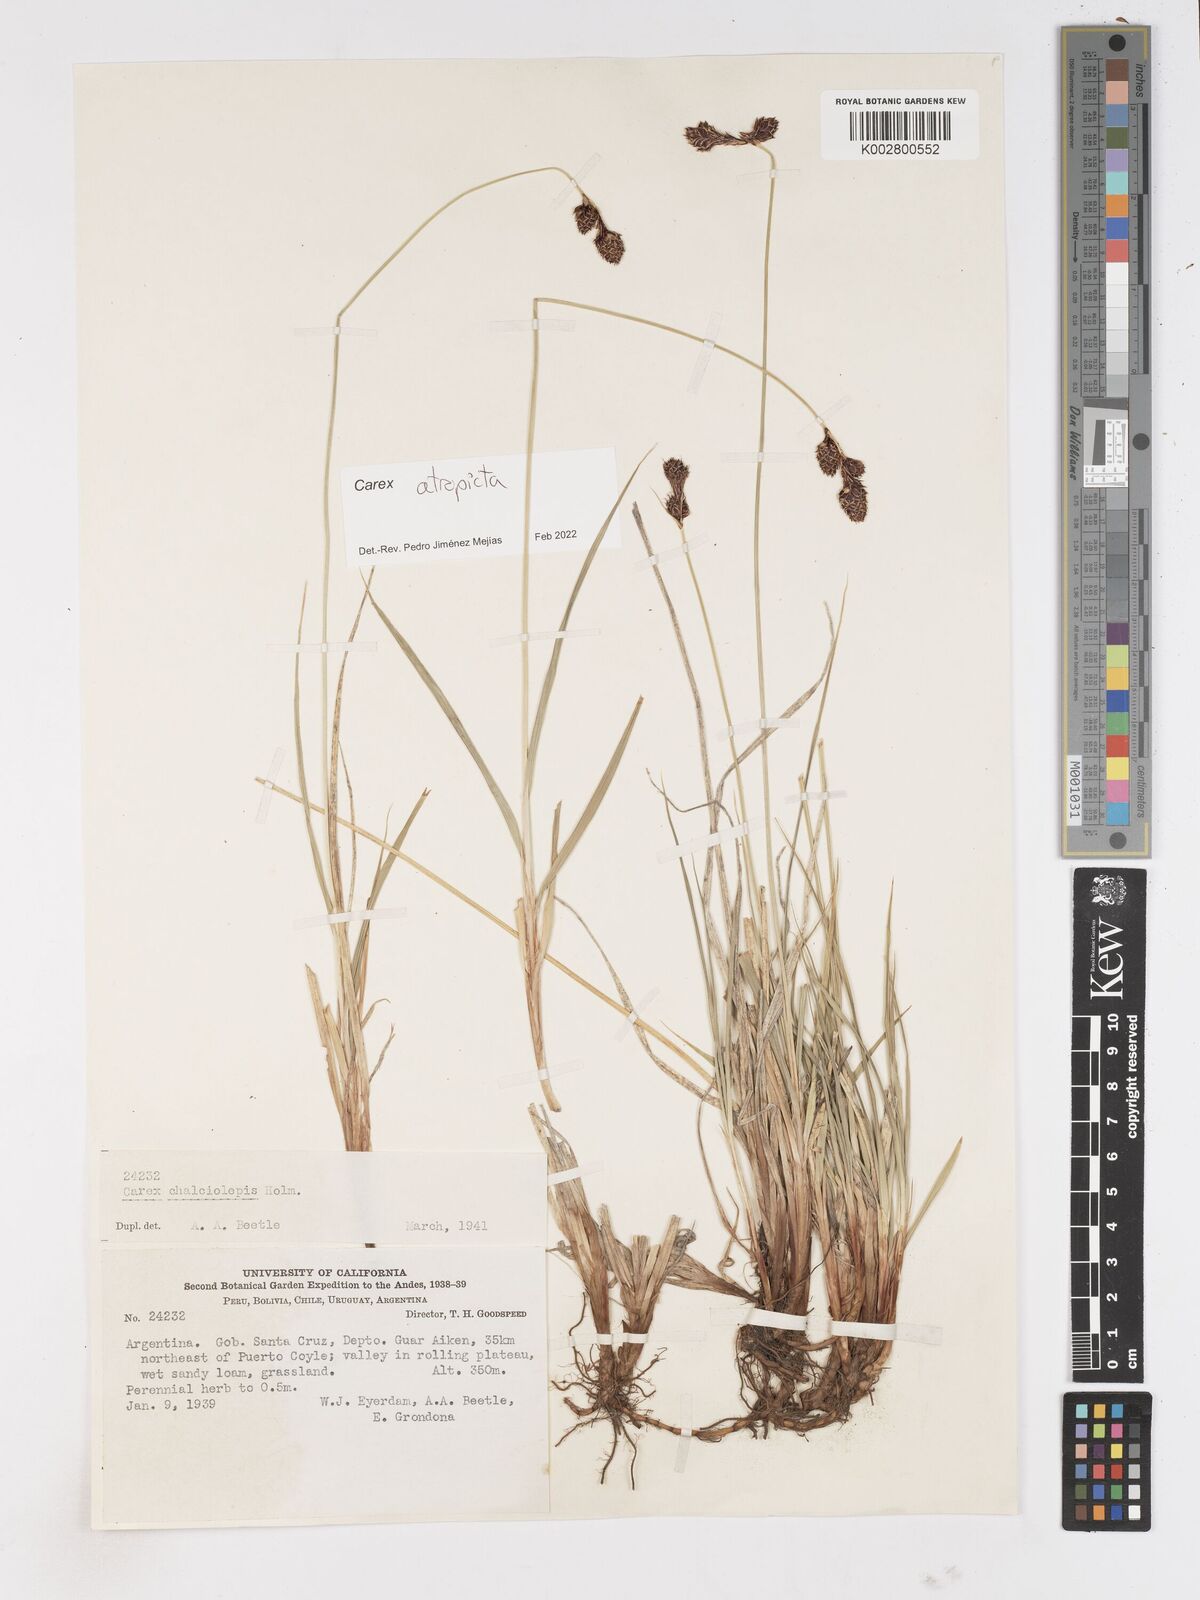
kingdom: Plantae
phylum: Tracheophyta
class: Liliopsida
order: Poales
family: Cyperaceae
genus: Carex
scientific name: Carex atropicta
